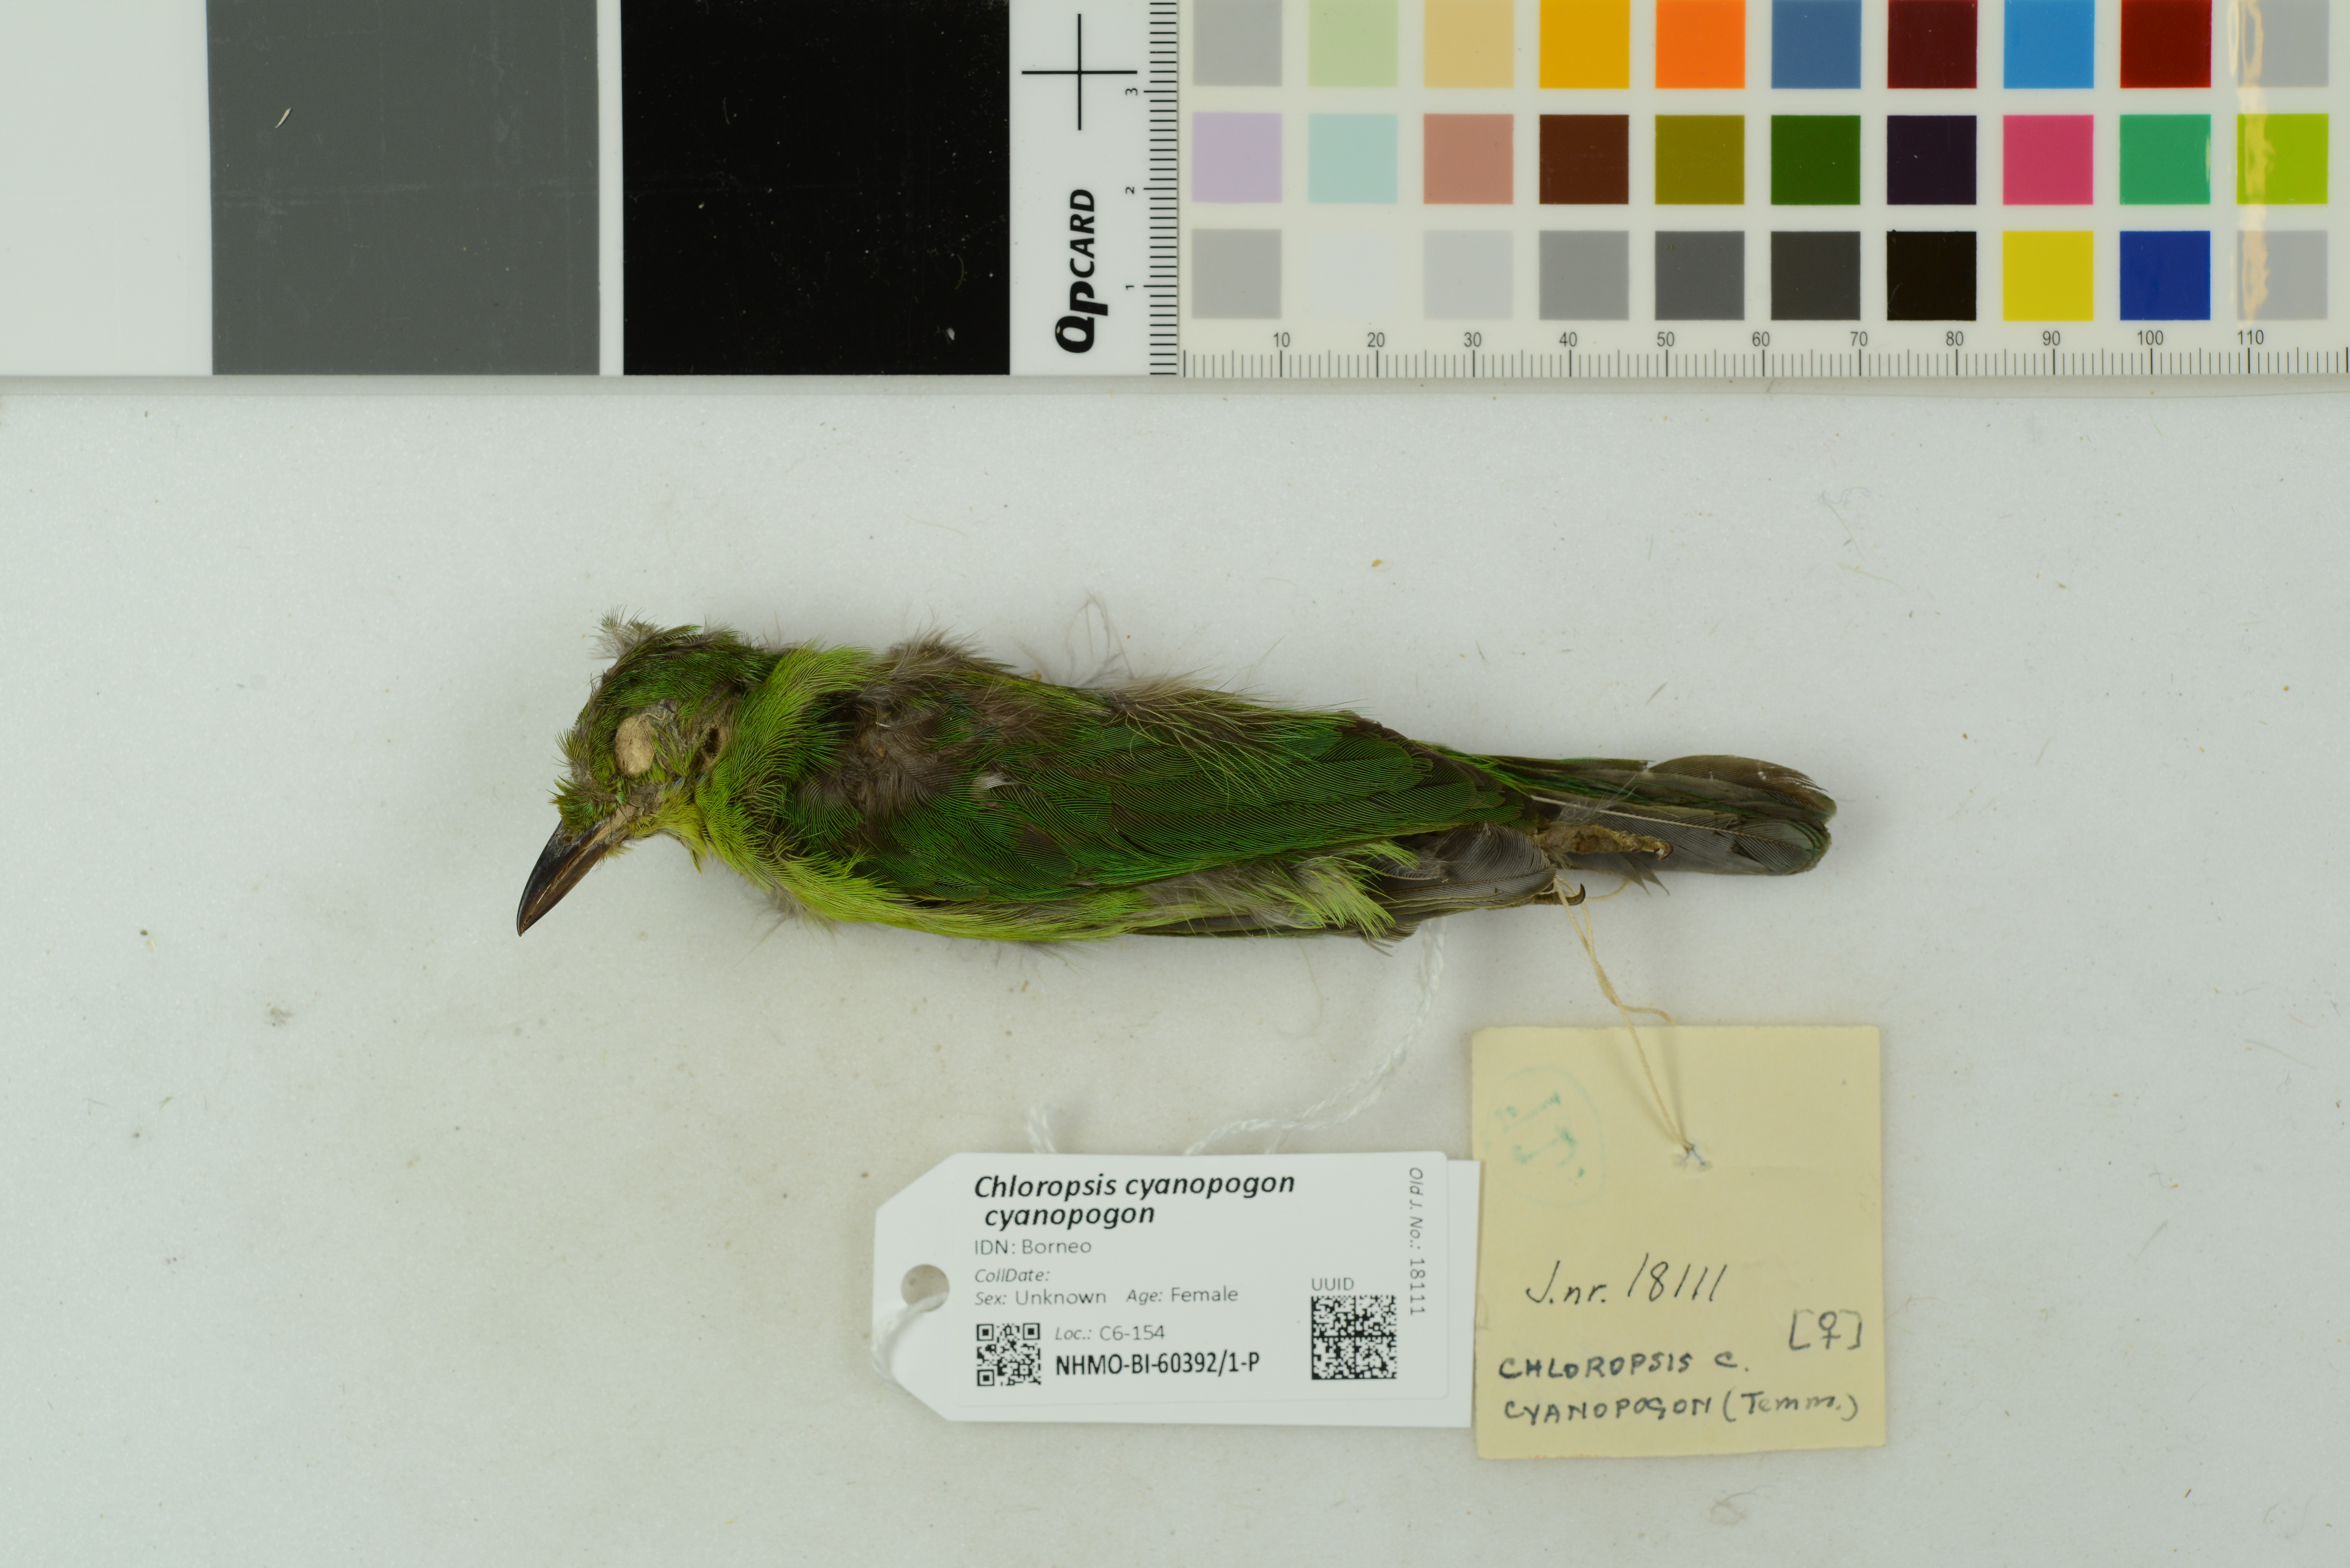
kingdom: Animalia
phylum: Chordata
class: Aves
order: Passeriformes
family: Chloropseidae
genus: Chloropsis
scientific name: Chloropsis cyanopogon
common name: Lesser green leafbird
